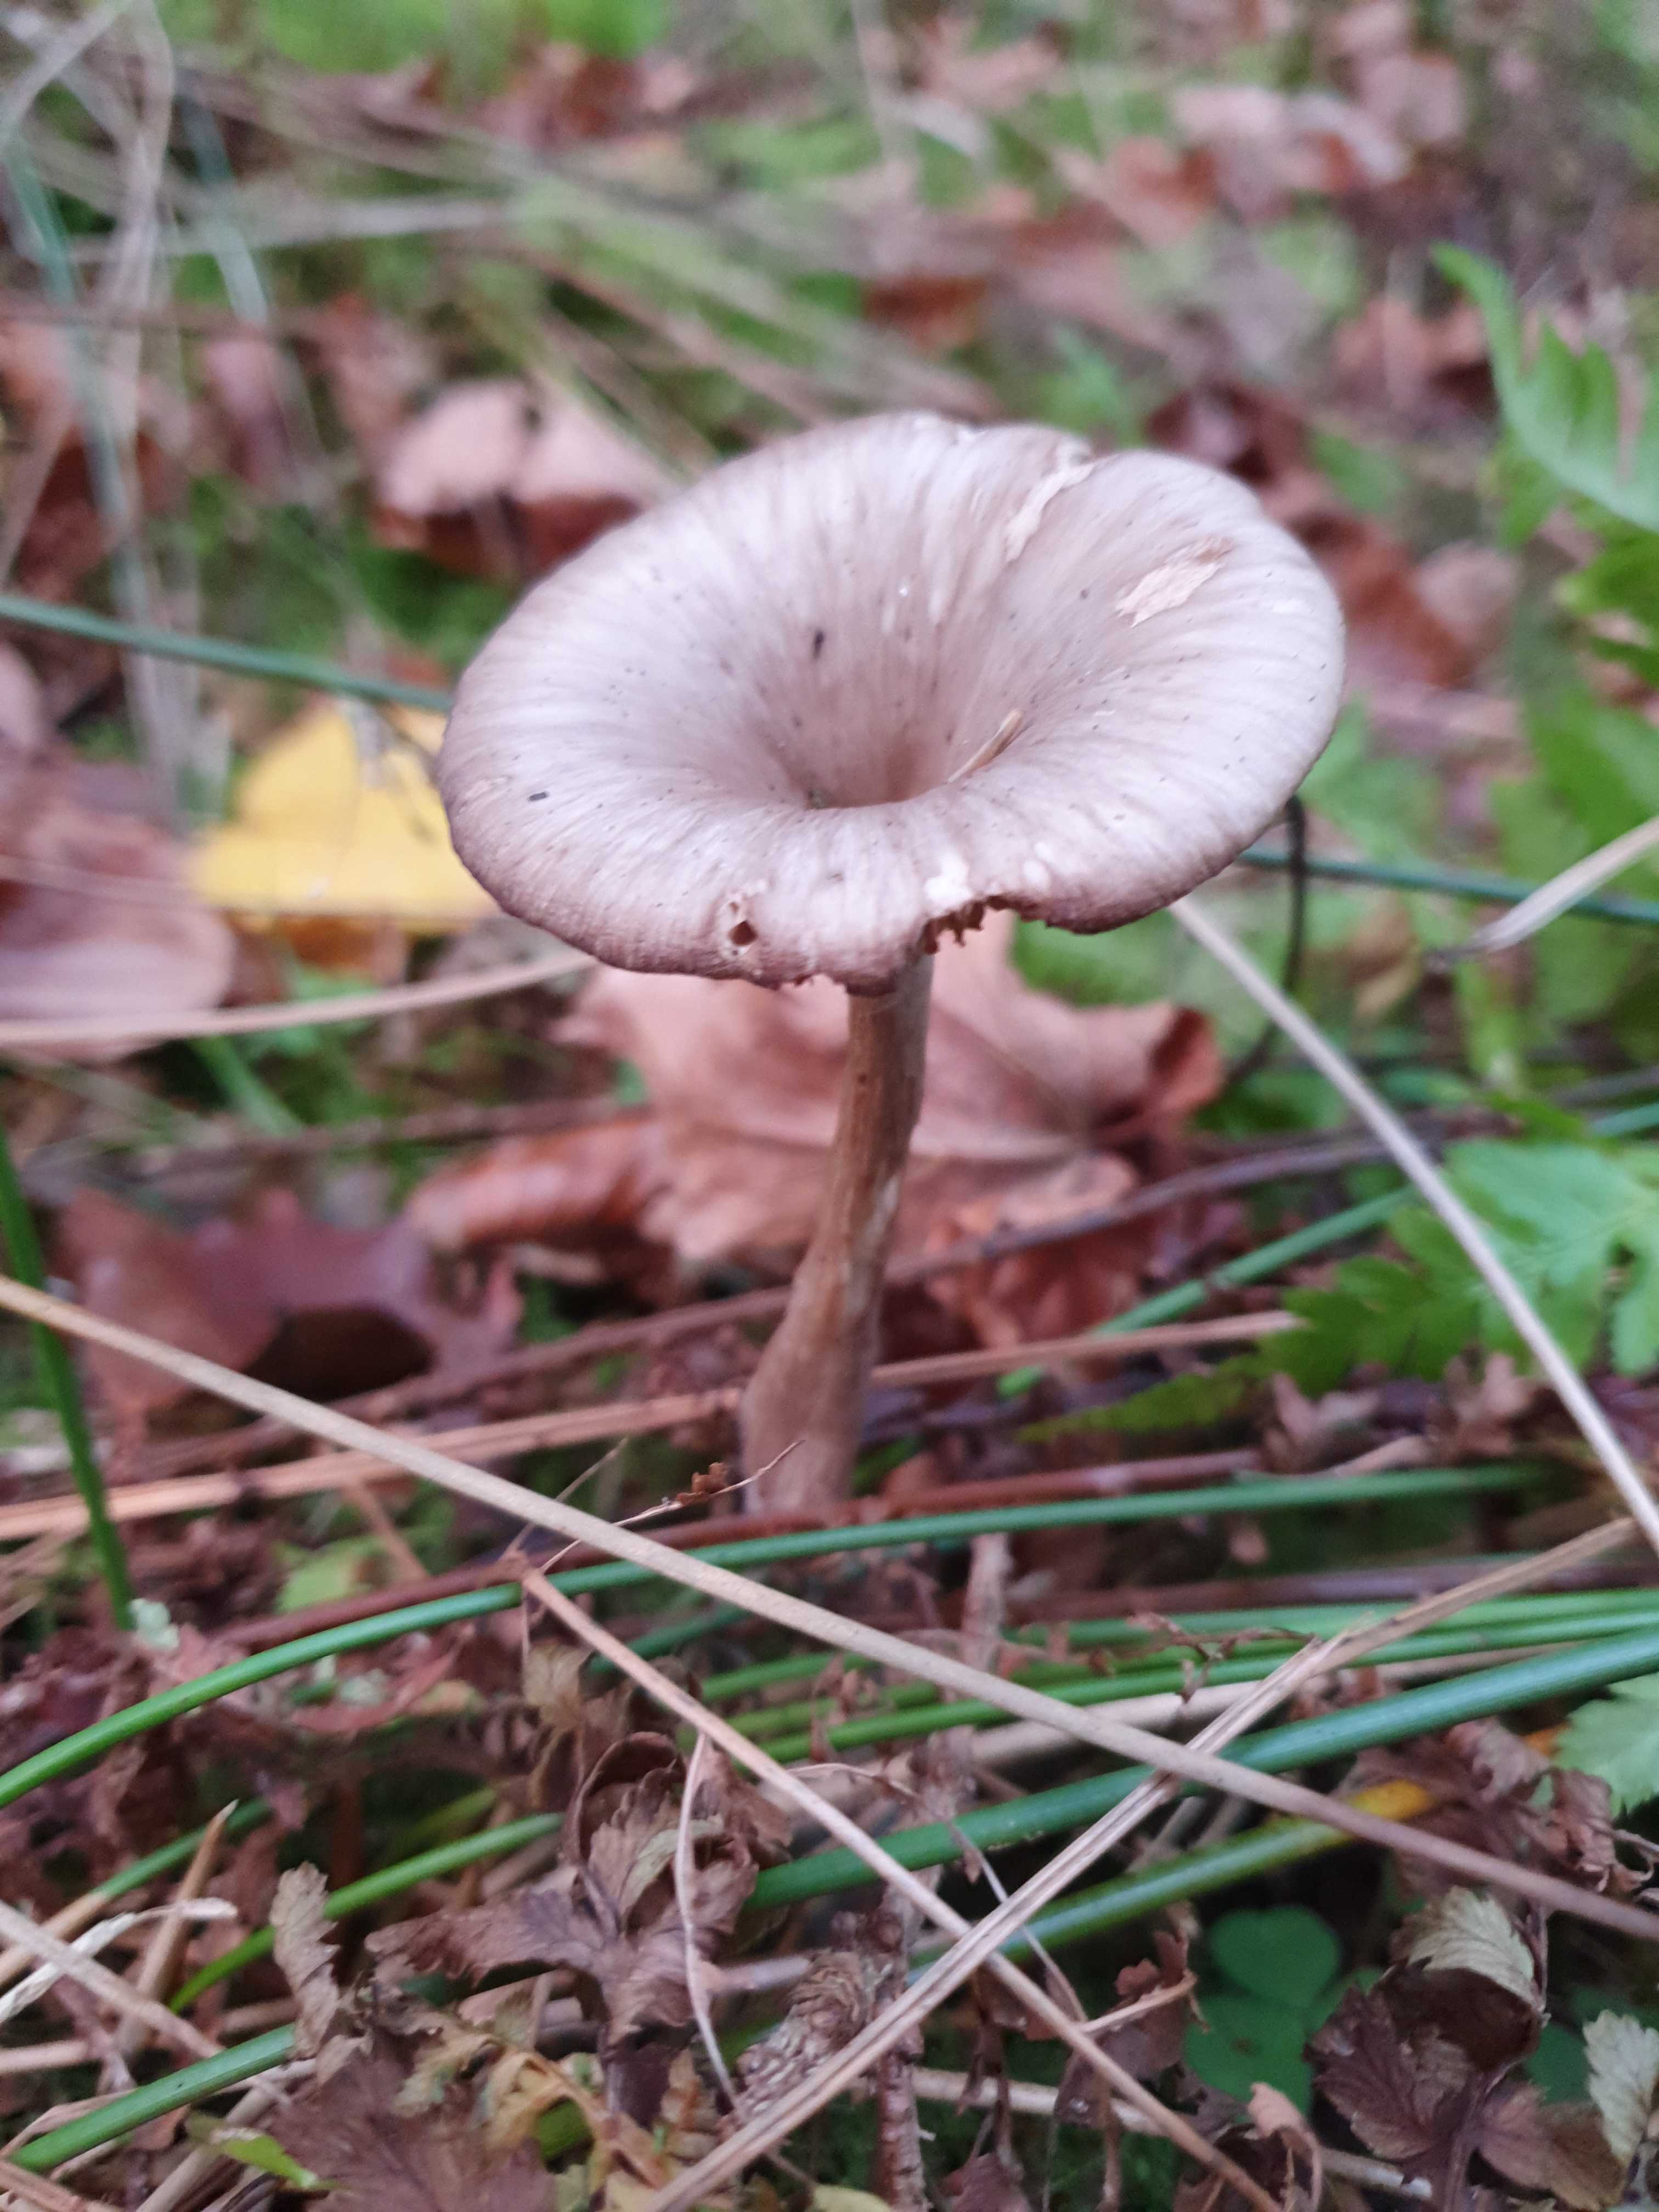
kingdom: Fungi
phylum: Basidiomycota
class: Agaricomycetes
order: Agaricales
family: Pseudoclitocybaceae
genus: Pseudoclitocybe
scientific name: Pseudoclitocybe cyathiformis
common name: almindelig bægertragthat
